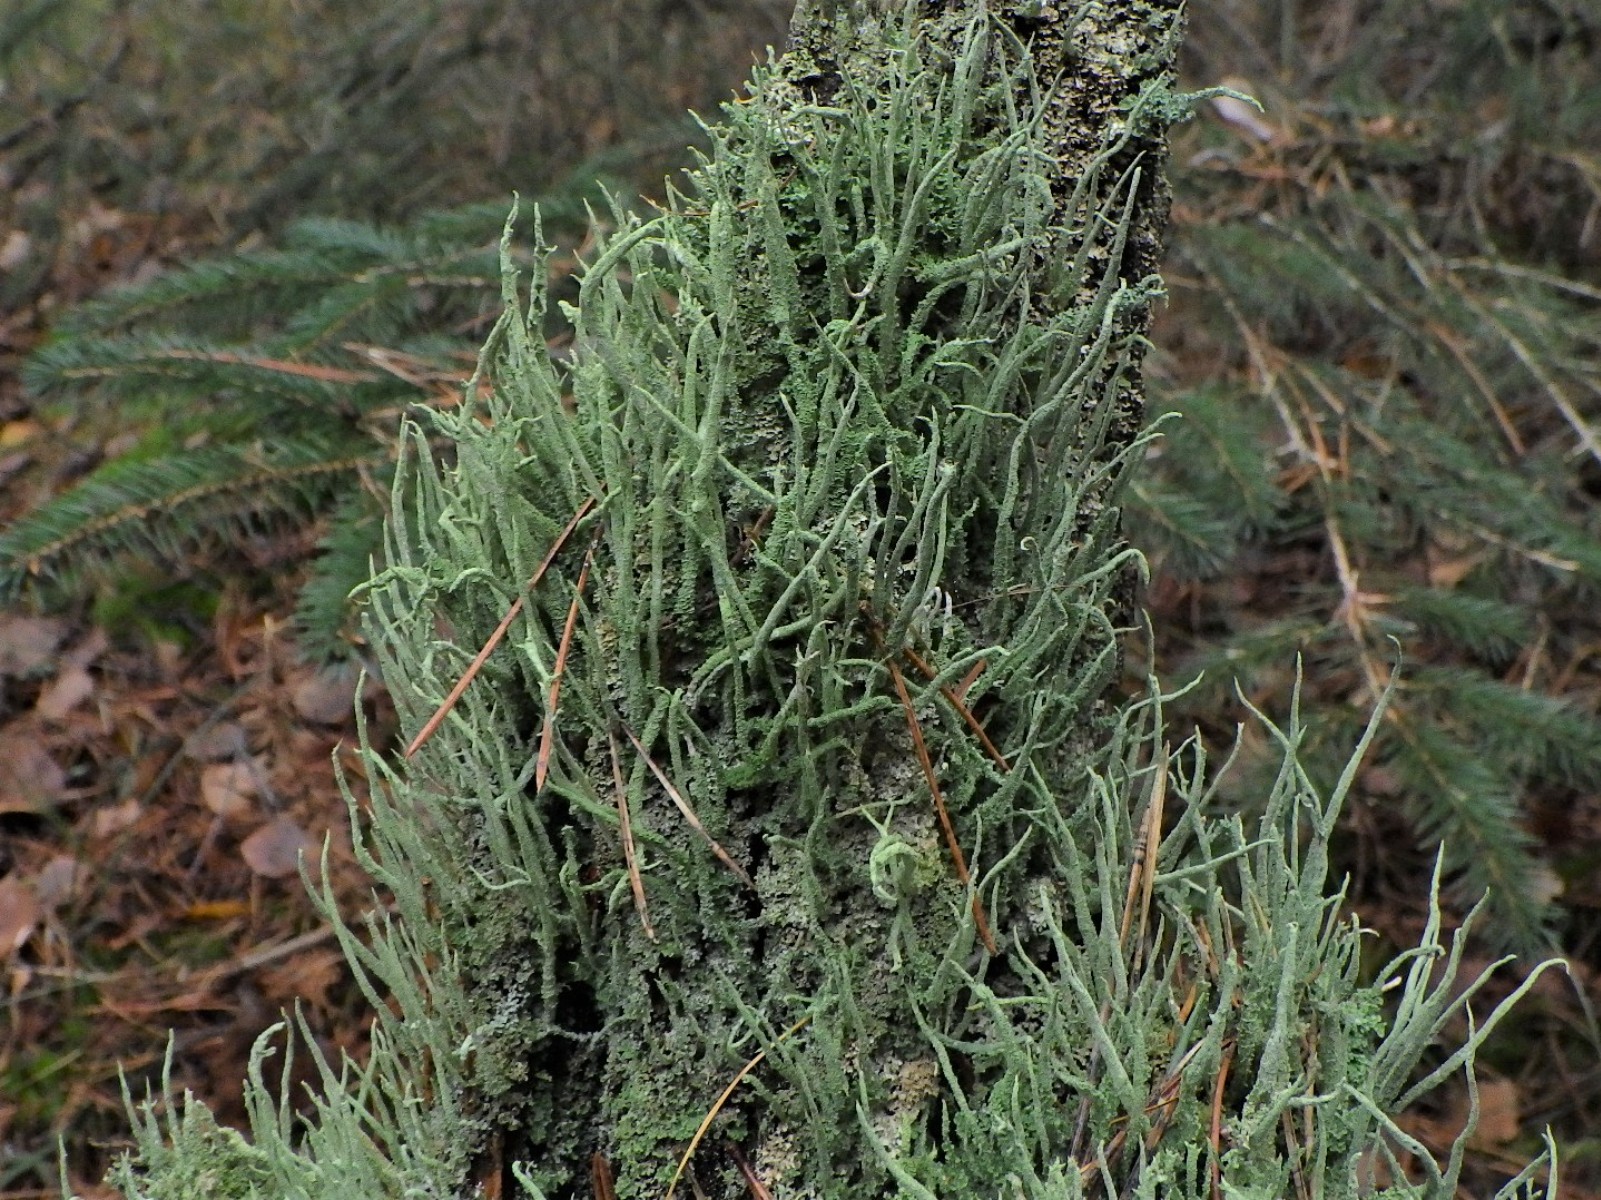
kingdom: Fungi
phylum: Ascomycota
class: Lecanoromycetes
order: Lecanorales
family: Cladoniaceae
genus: Cladonia
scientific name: Cladonia glauca
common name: grågrøn bægerlav
